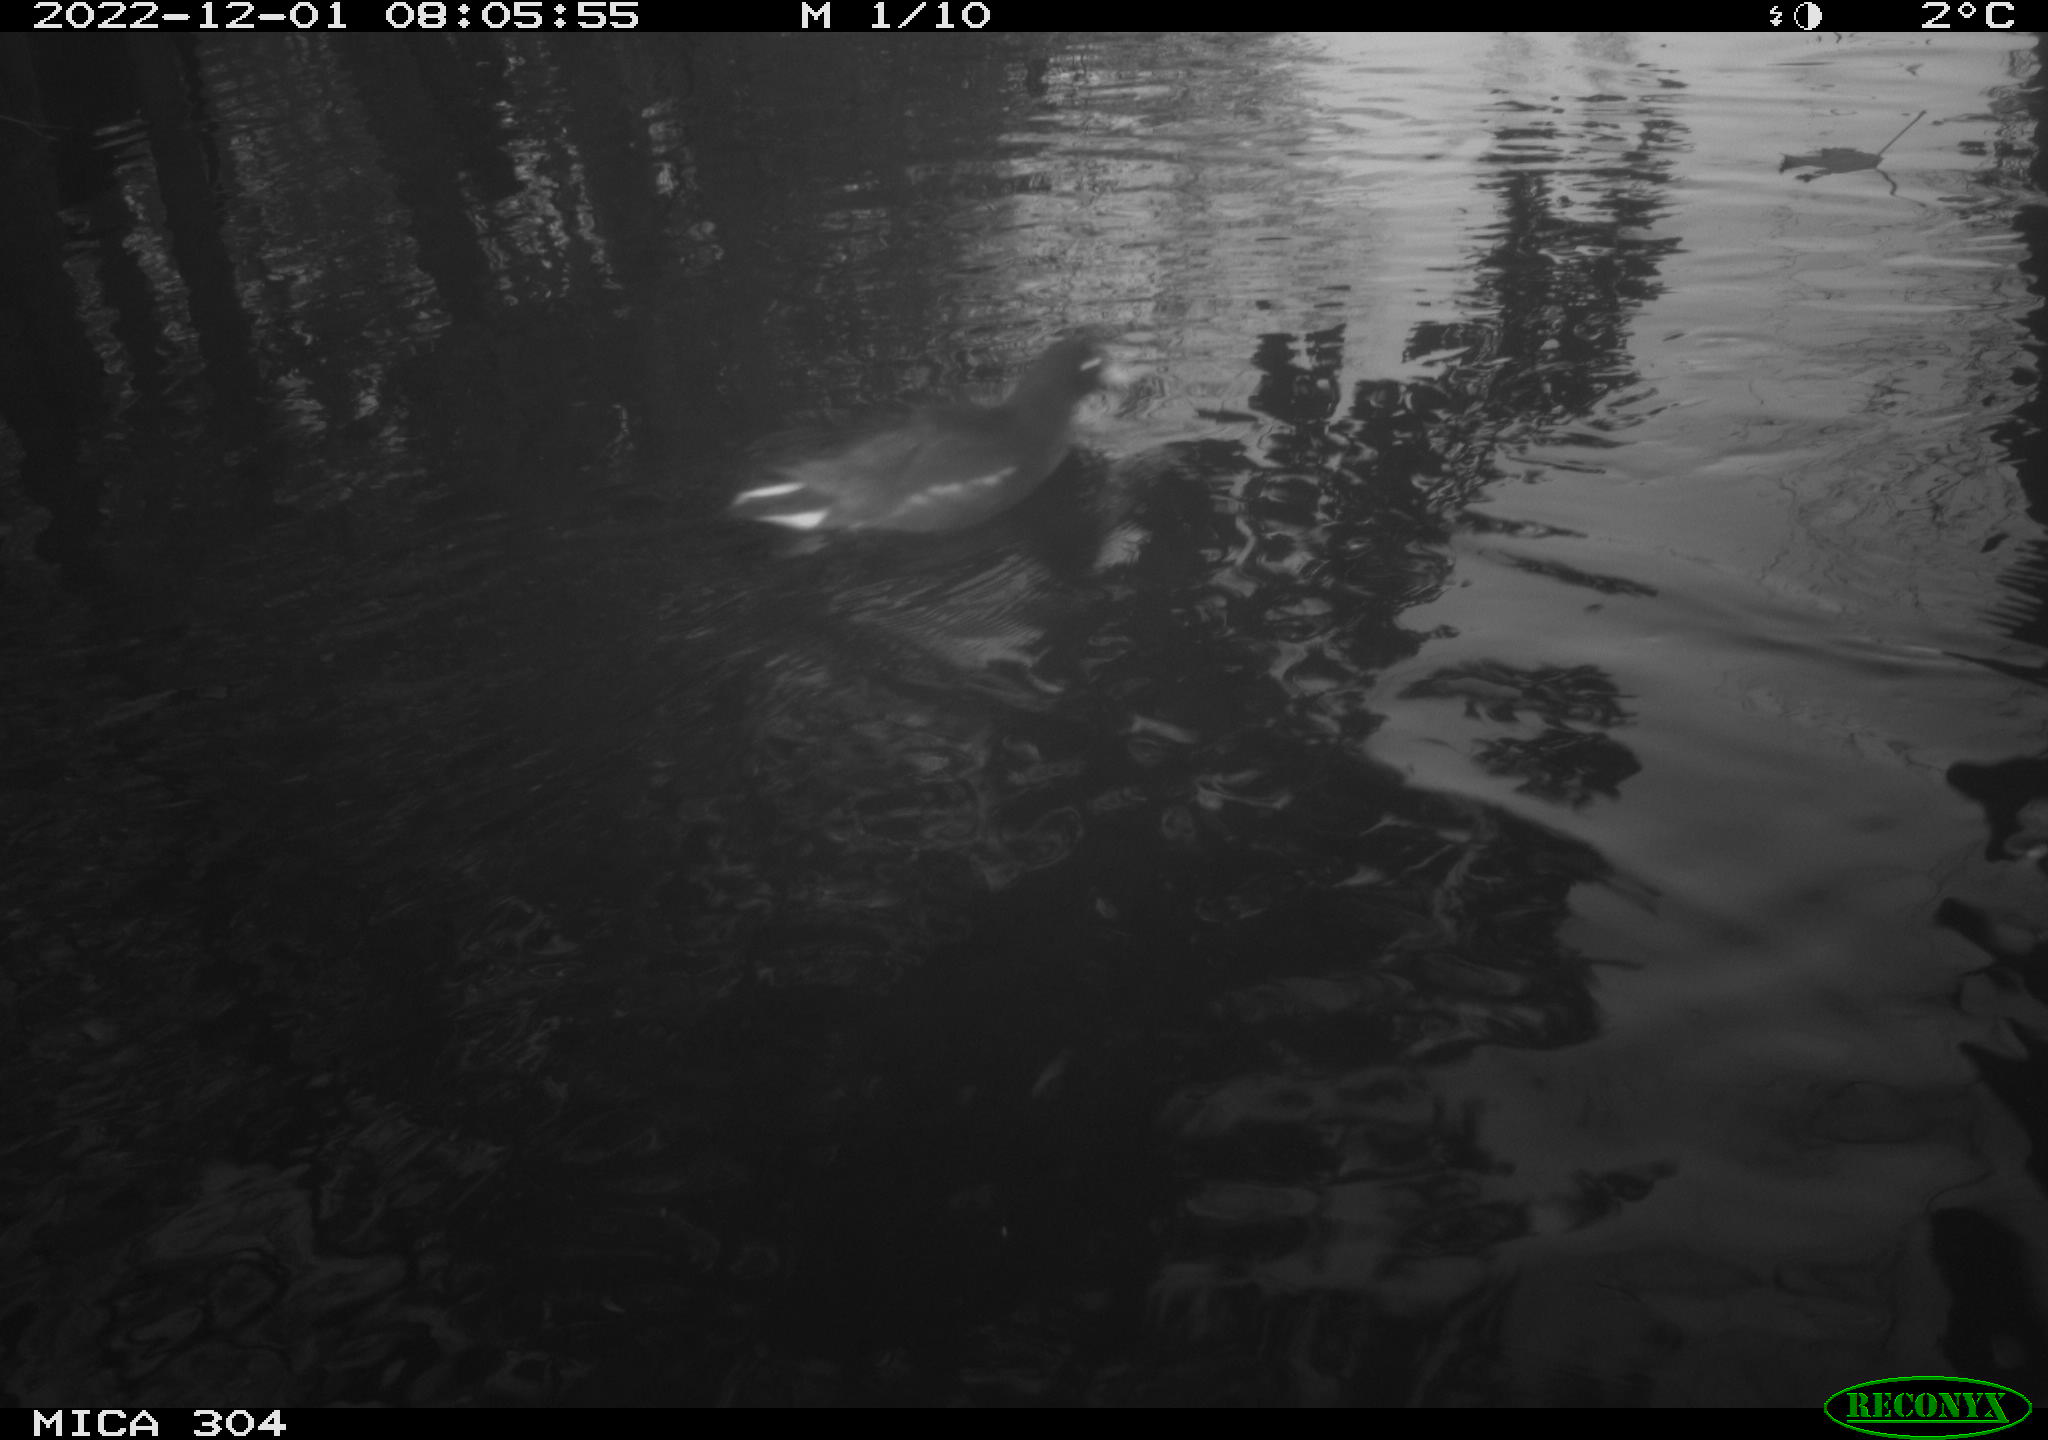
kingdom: Animalia
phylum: Chordata
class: Aves
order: Pelecaniformes
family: Ardeidae
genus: Ardea
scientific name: Ardea cinerea
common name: Grey heron
